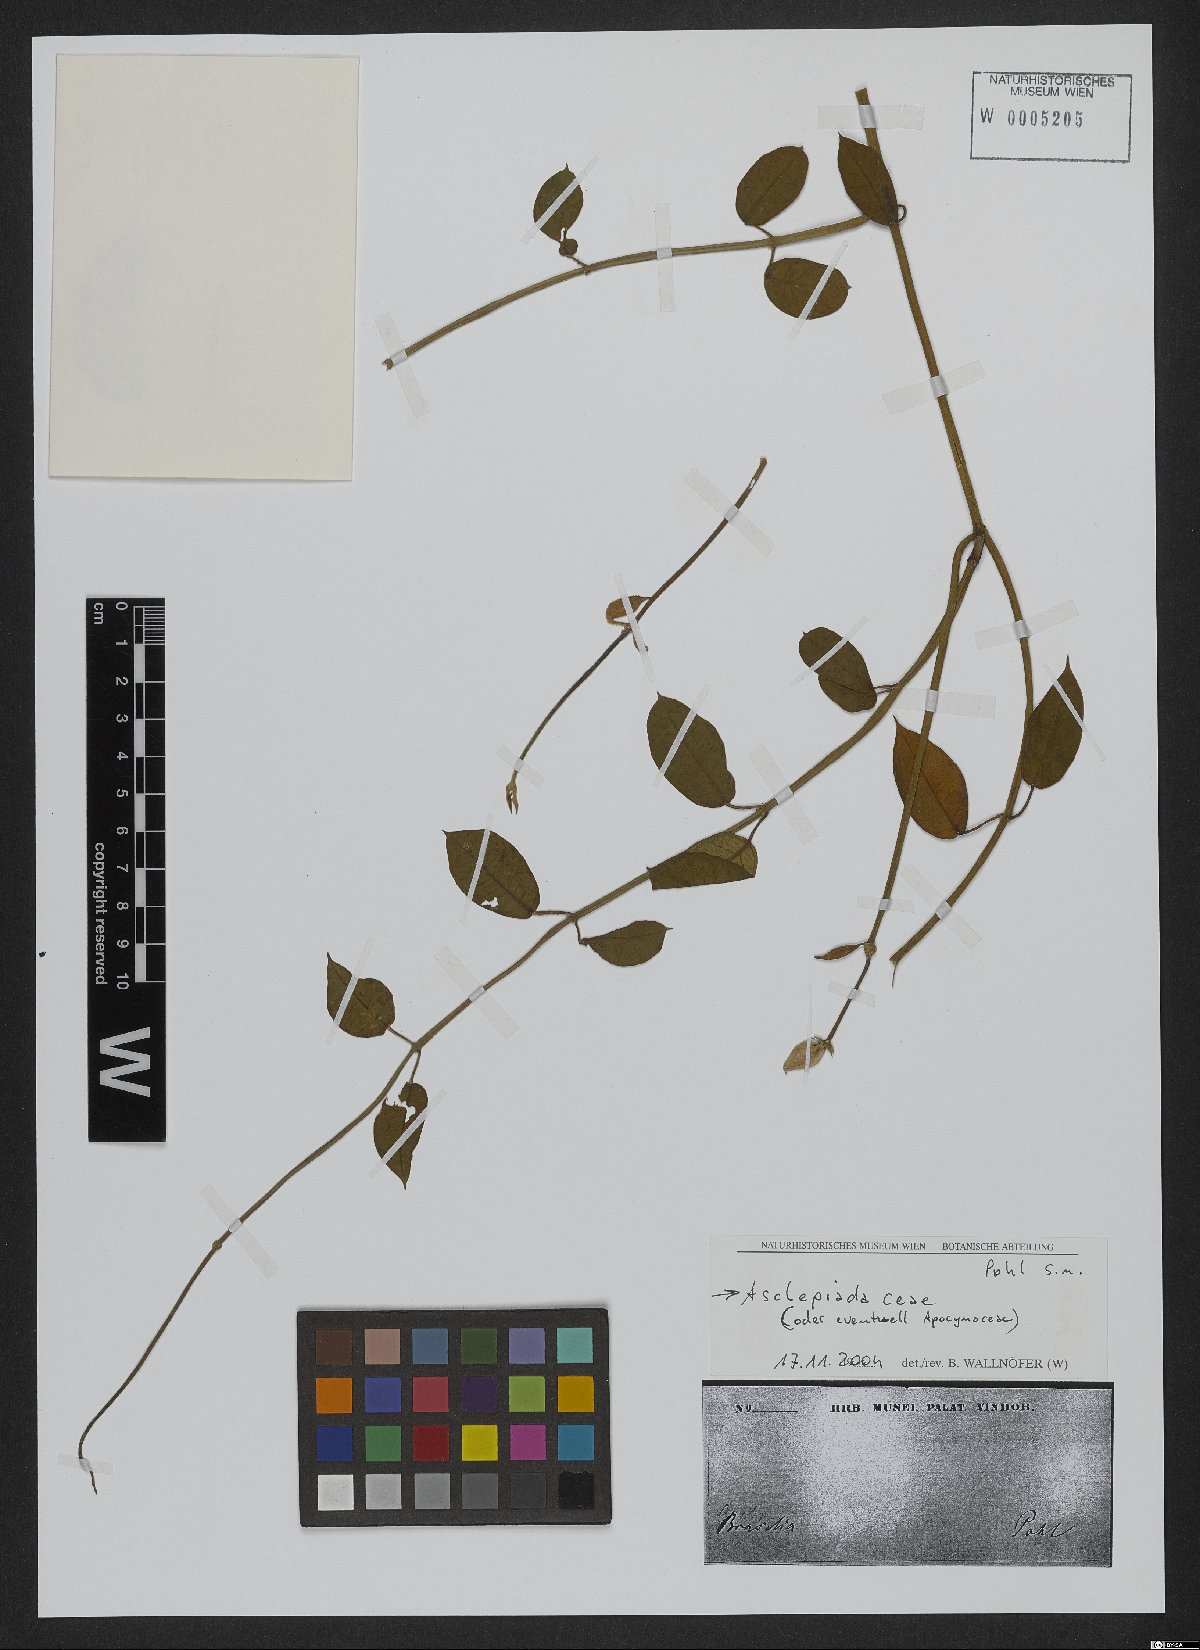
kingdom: Plantae
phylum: Tracheophyta
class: Magnoliopsida
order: Gentianales
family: Asclepiadaceae
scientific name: Asclepiadaceae
